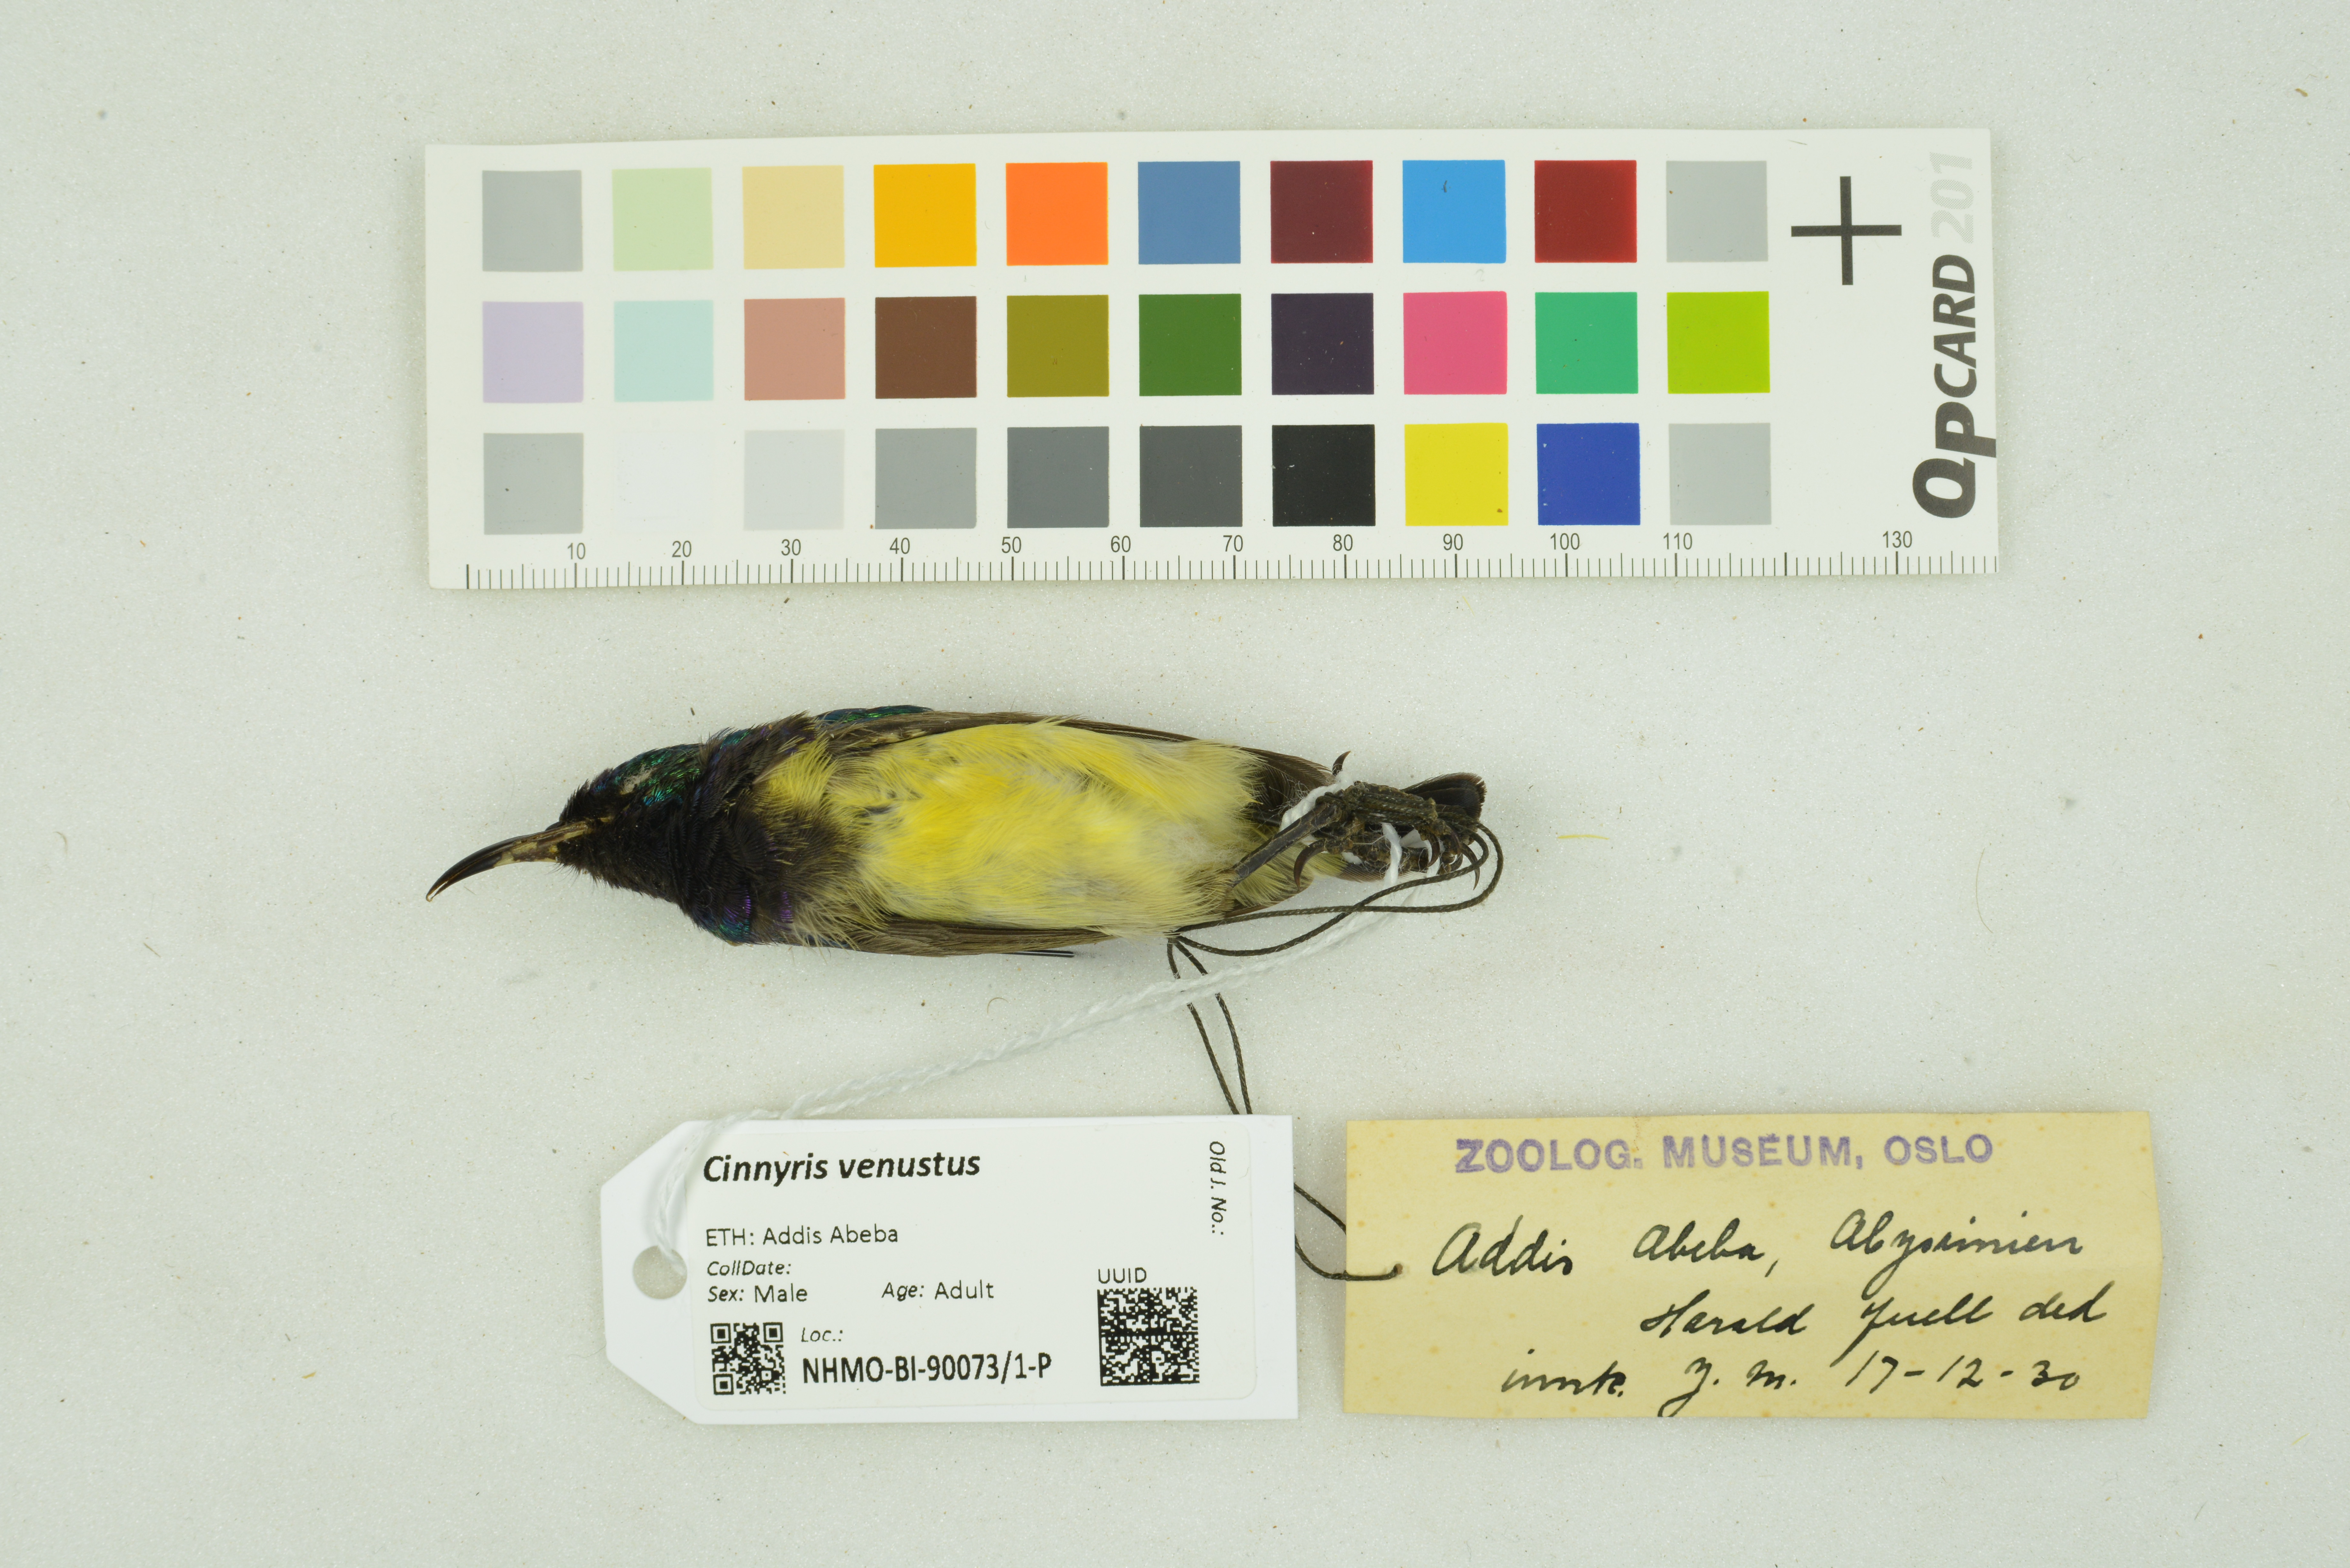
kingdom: Animalia
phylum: Chordata
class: Aves
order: Passeriformes
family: Nectariniidae
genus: Cinnyris
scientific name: Cinnyris venustus
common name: Variable sunbird
